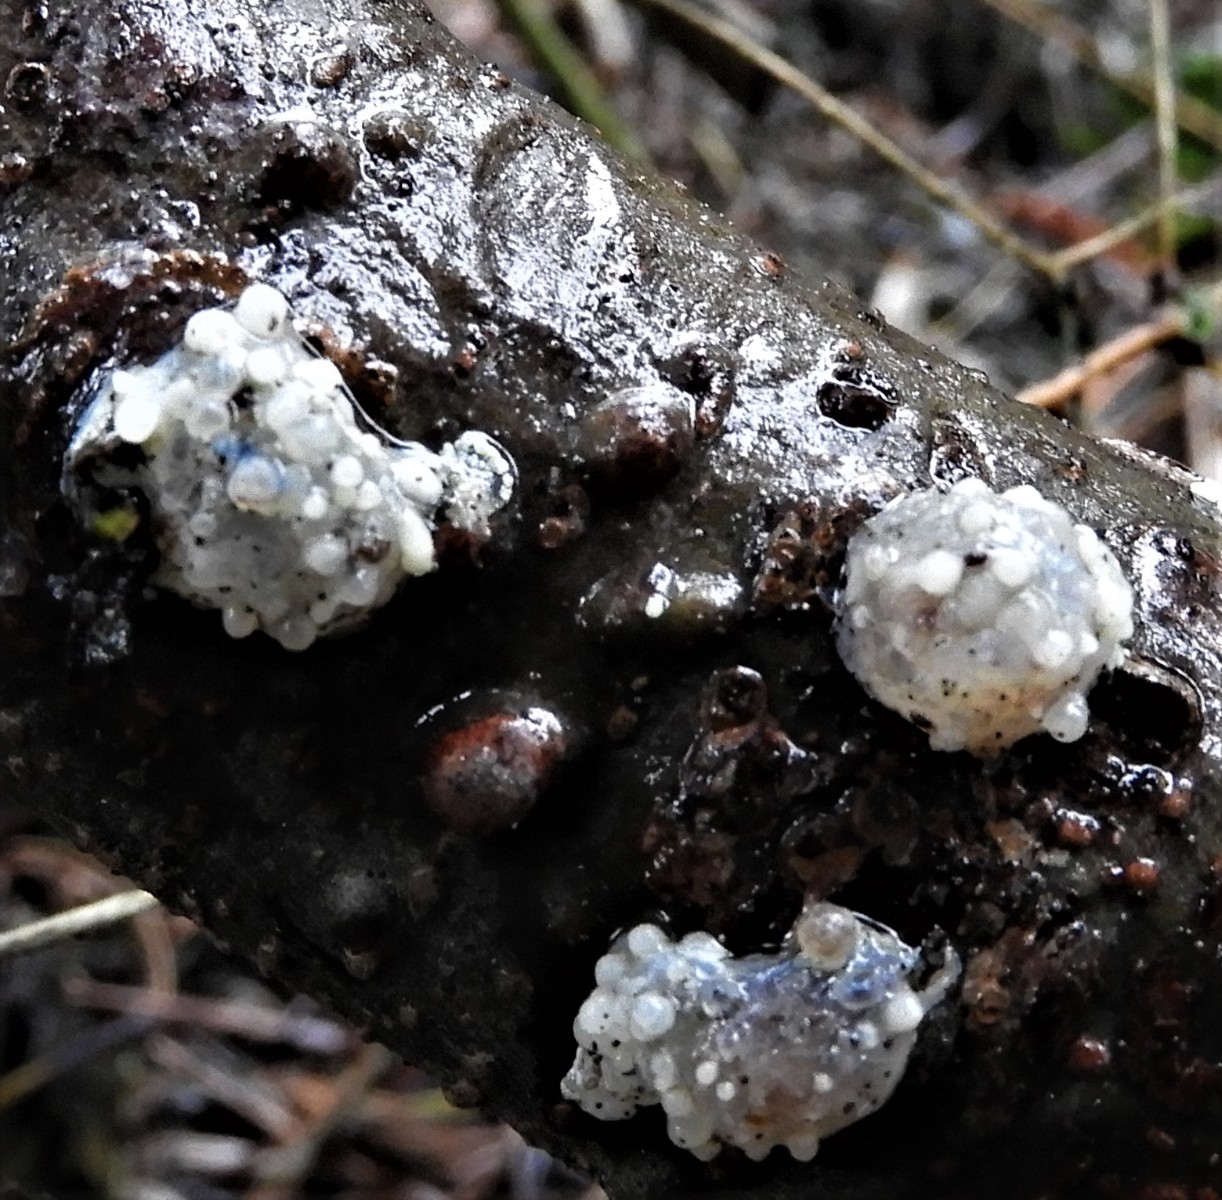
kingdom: Fungi
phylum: Basidiomycota
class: Tremellomycetes
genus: Heteromycophaga
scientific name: Heteromycophaga glandulosae
